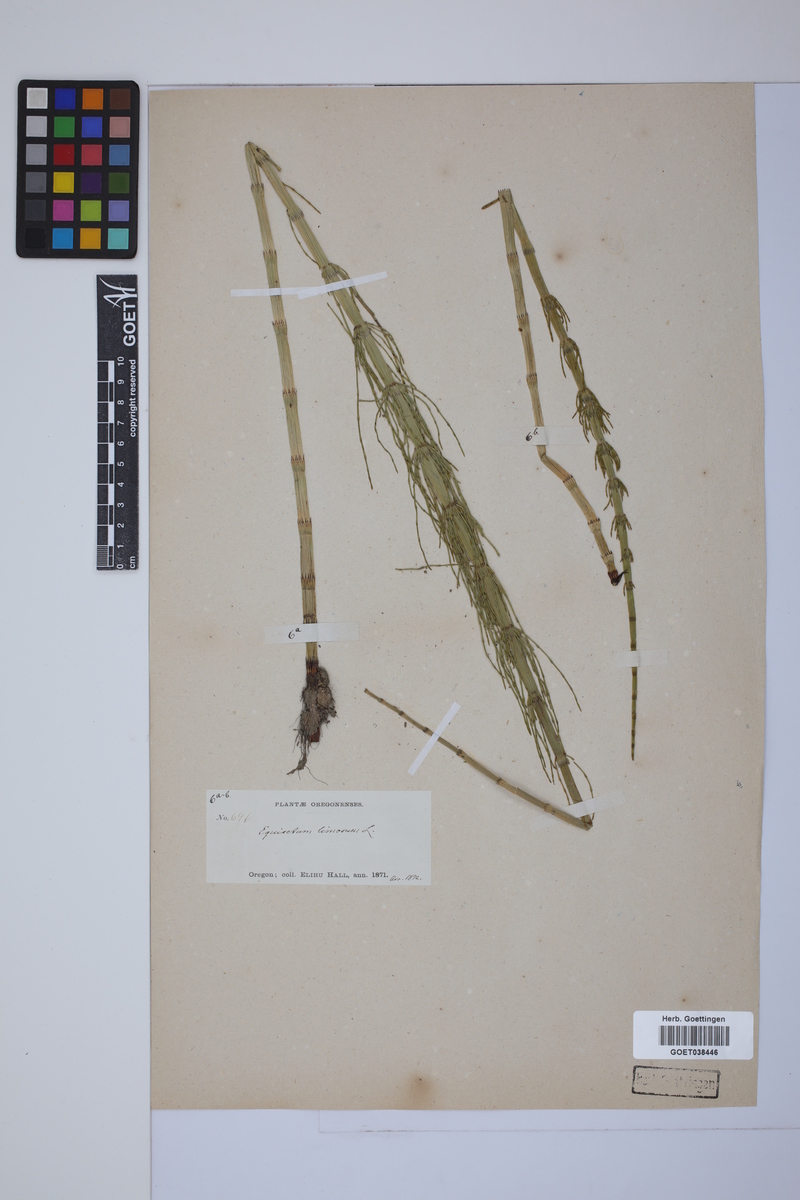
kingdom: Plantae
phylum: Tracheophyta
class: Polypodiopsida
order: Equisetales
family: Equisetaceae
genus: Equisetum
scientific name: Equisetum fluviatile
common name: Water horsetail
